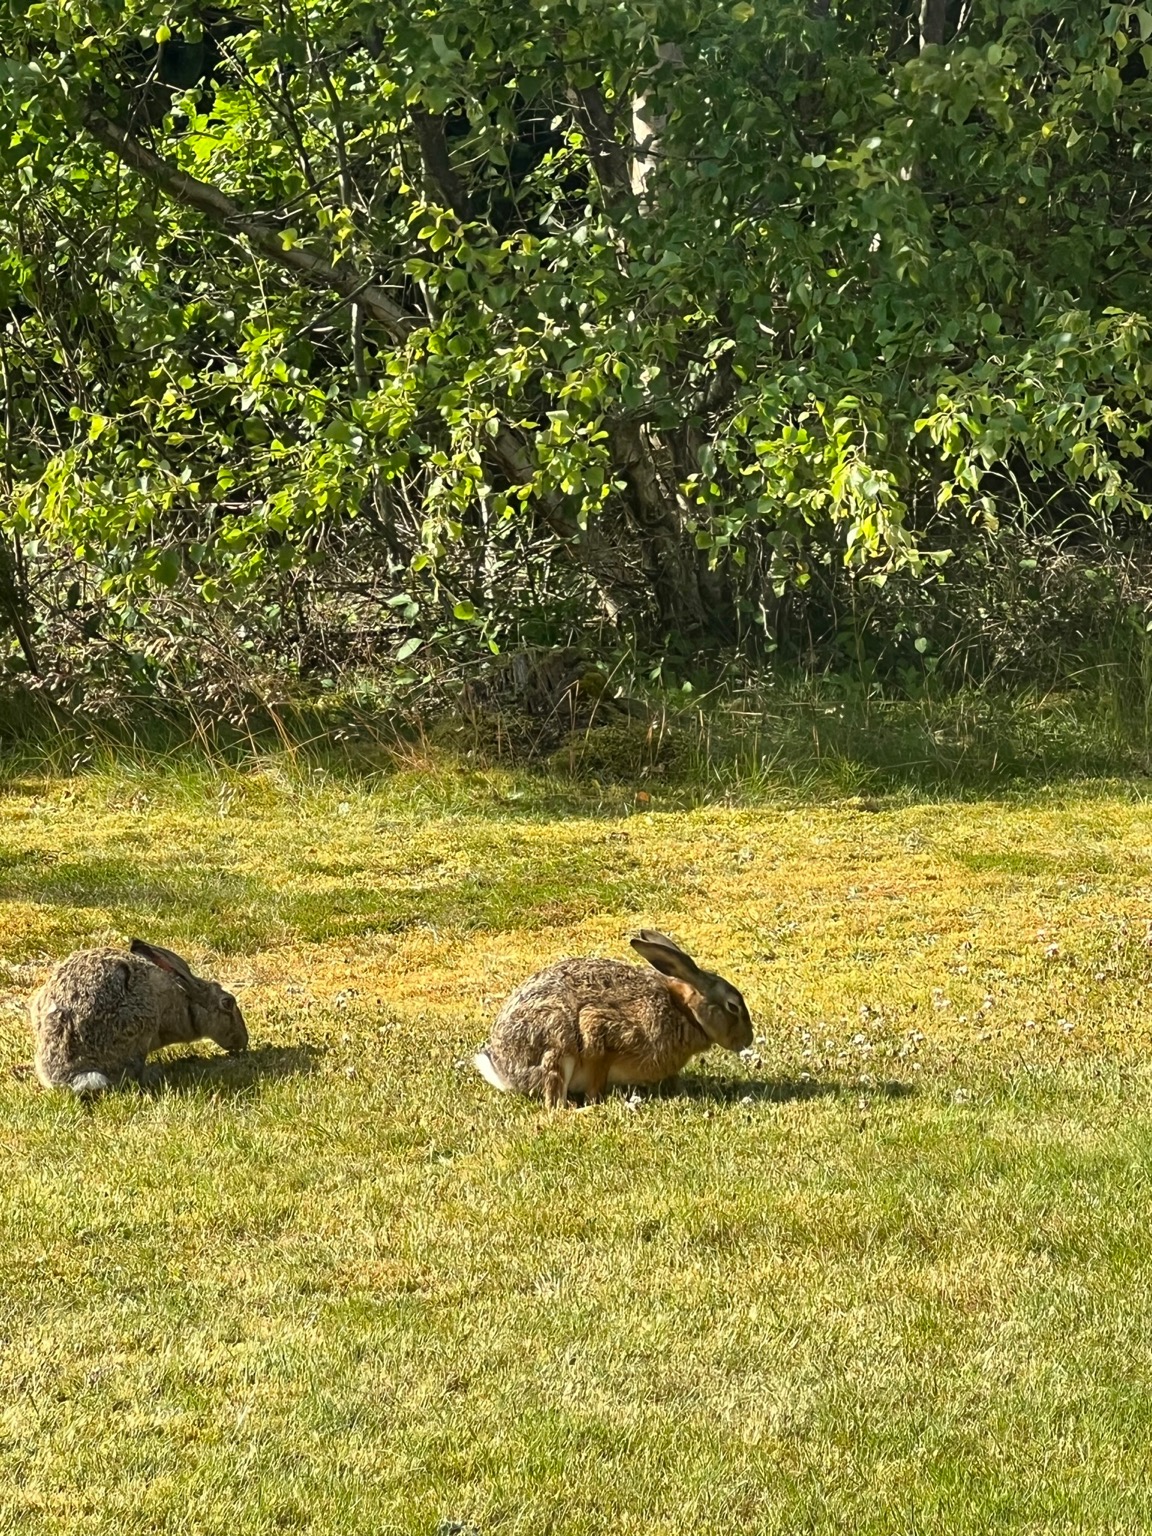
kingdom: Animalia
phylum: Chordata
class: Mammalia
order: Lagomorpha
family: Leporidae
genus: Lepus
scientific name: Lepus europaeus
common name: Hare
